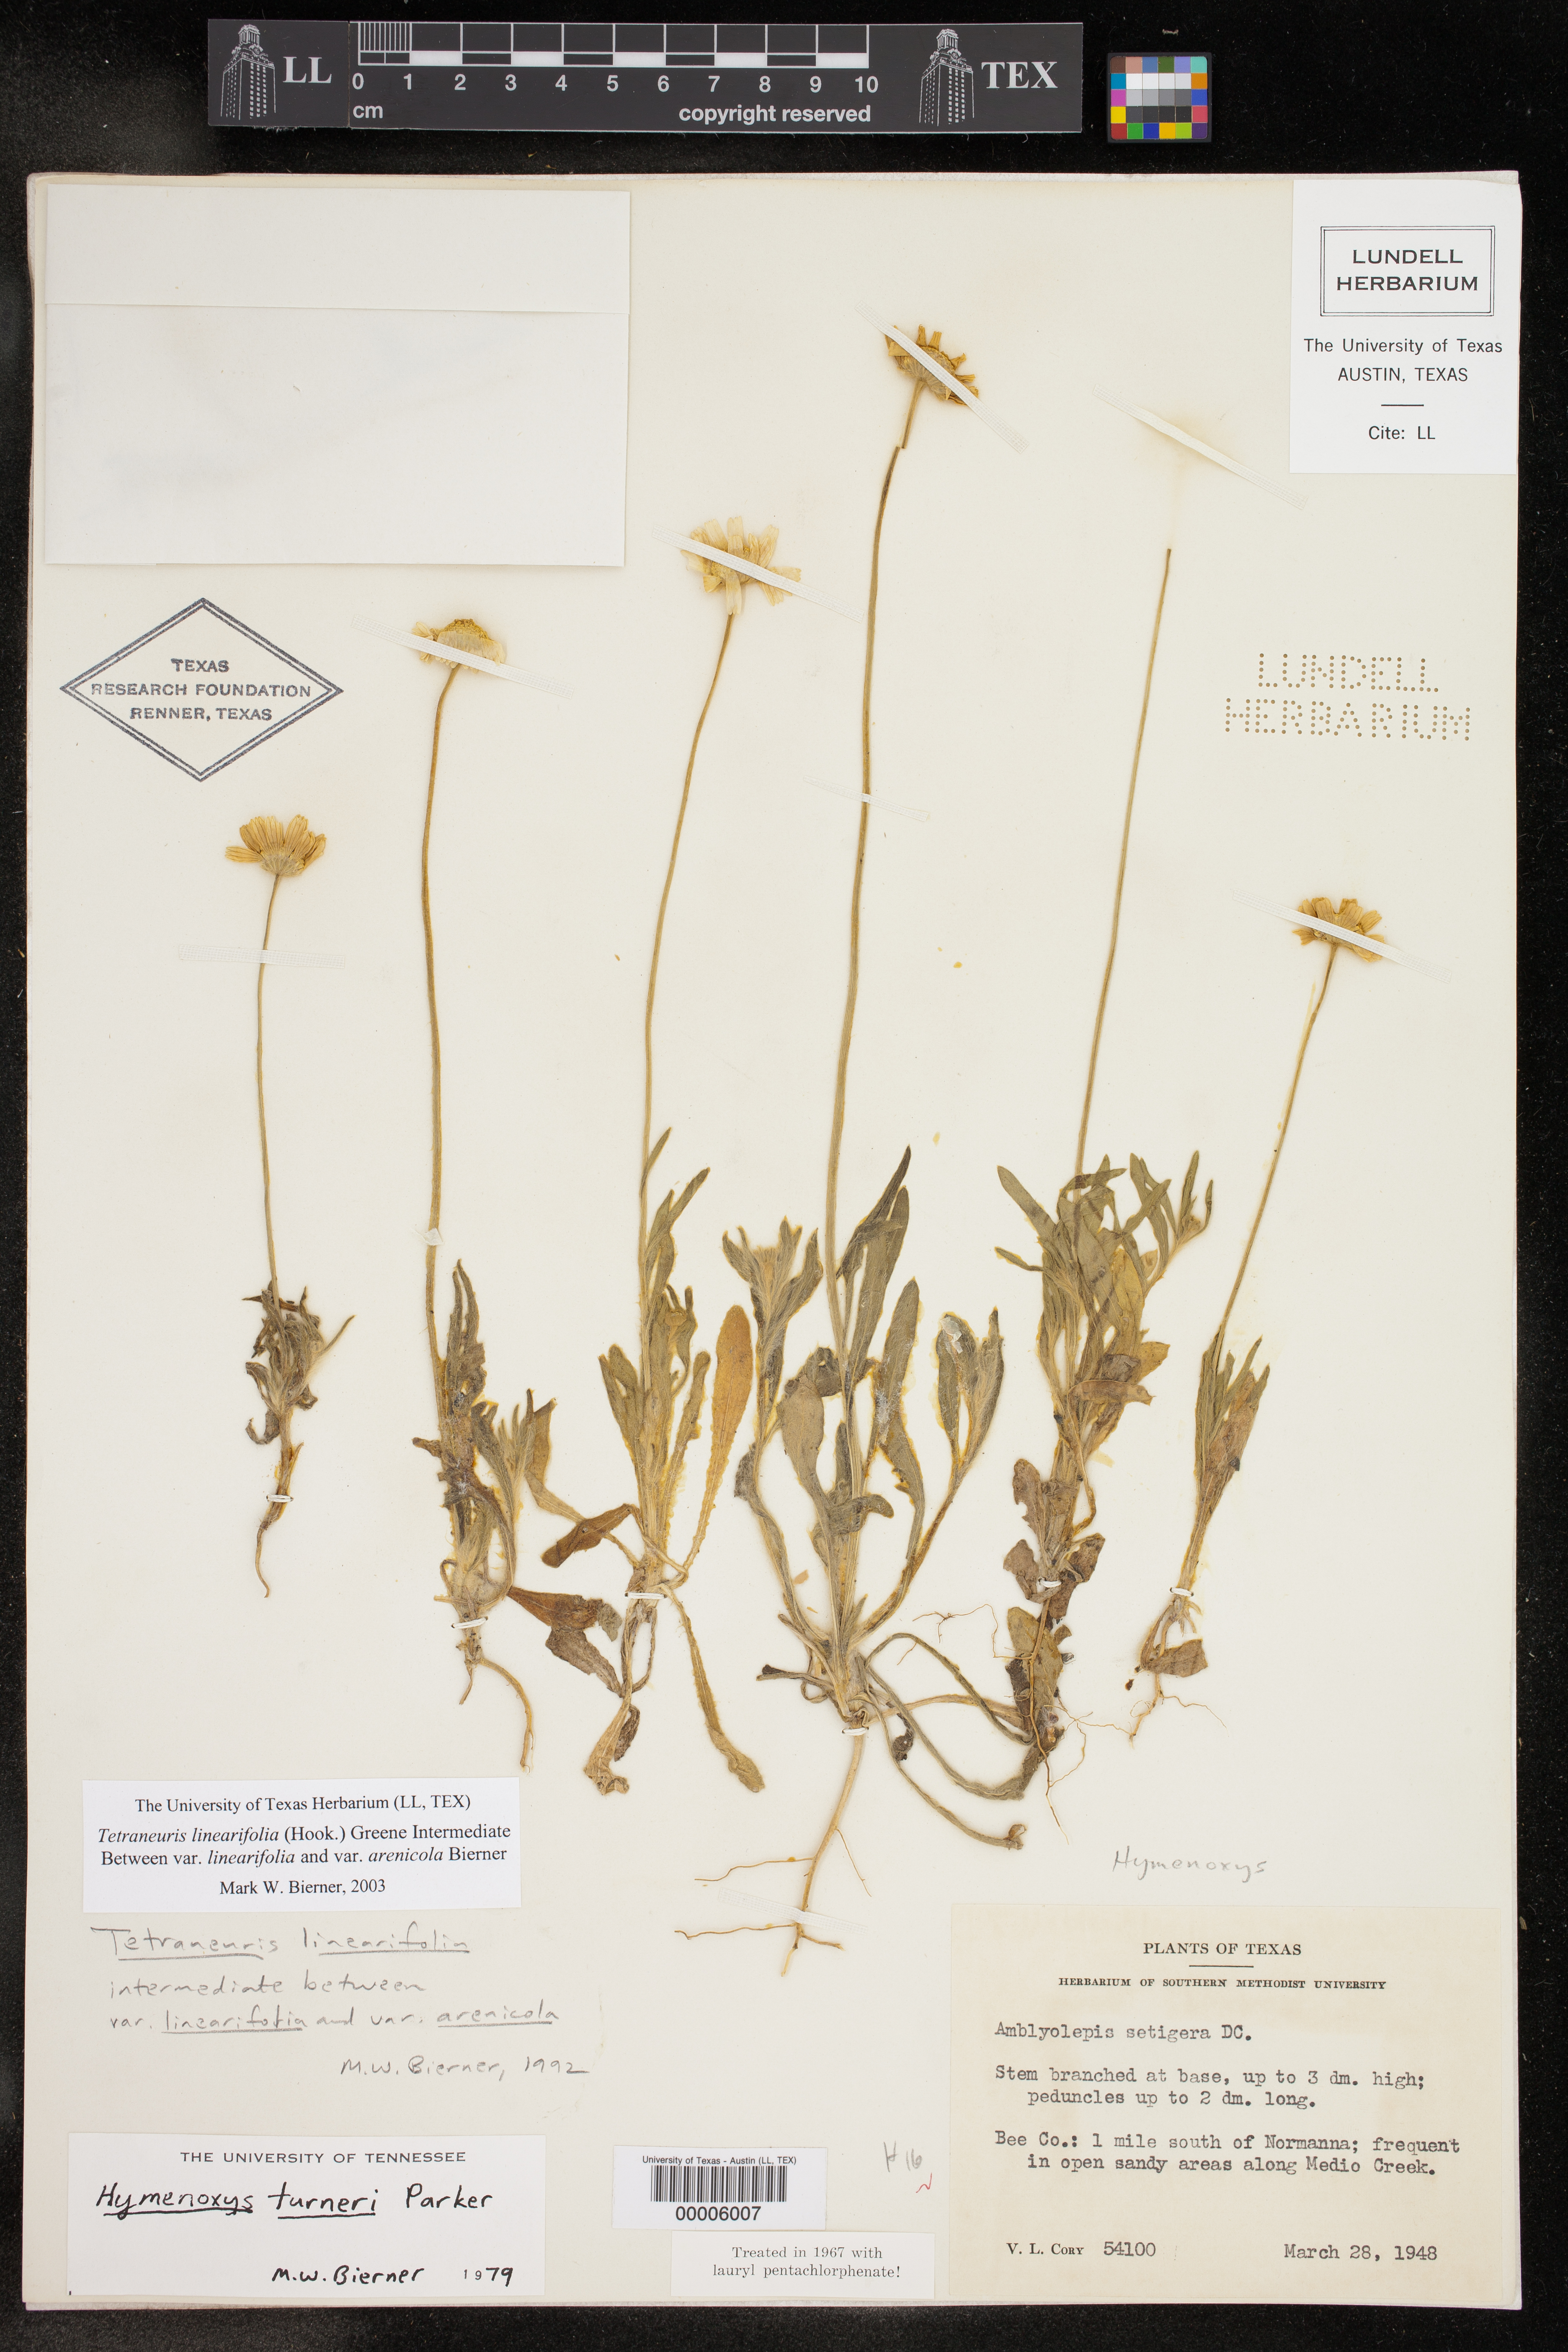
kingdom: Plantae
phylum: Tracheophyta
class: Magnoliopsida
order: Asterales
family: Asteraceae
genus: Tetraneuris
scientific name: Tetraneuris linearifolia
